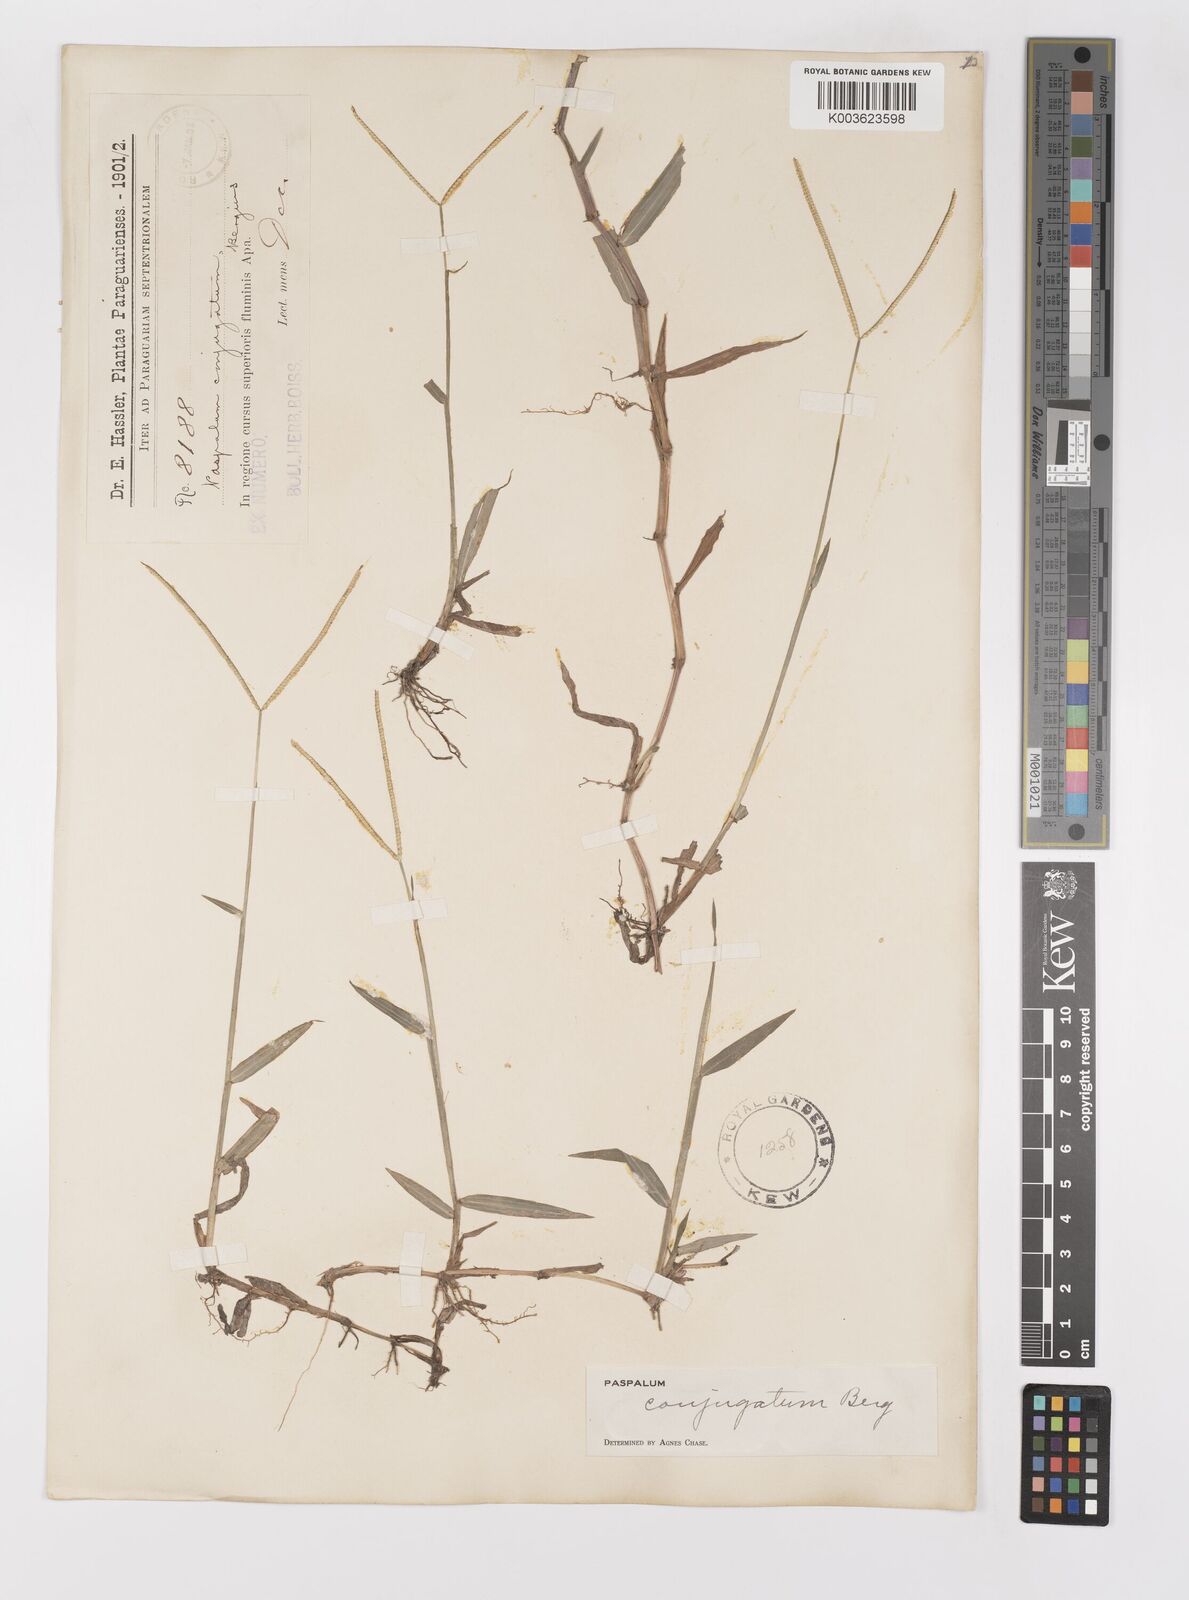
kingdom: Plantae
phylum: Tracheophyta
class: Liliopsida
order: Poales
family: Poaceae
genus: Paspalum
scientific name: Paspalum conjugatum
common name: Hilograss
